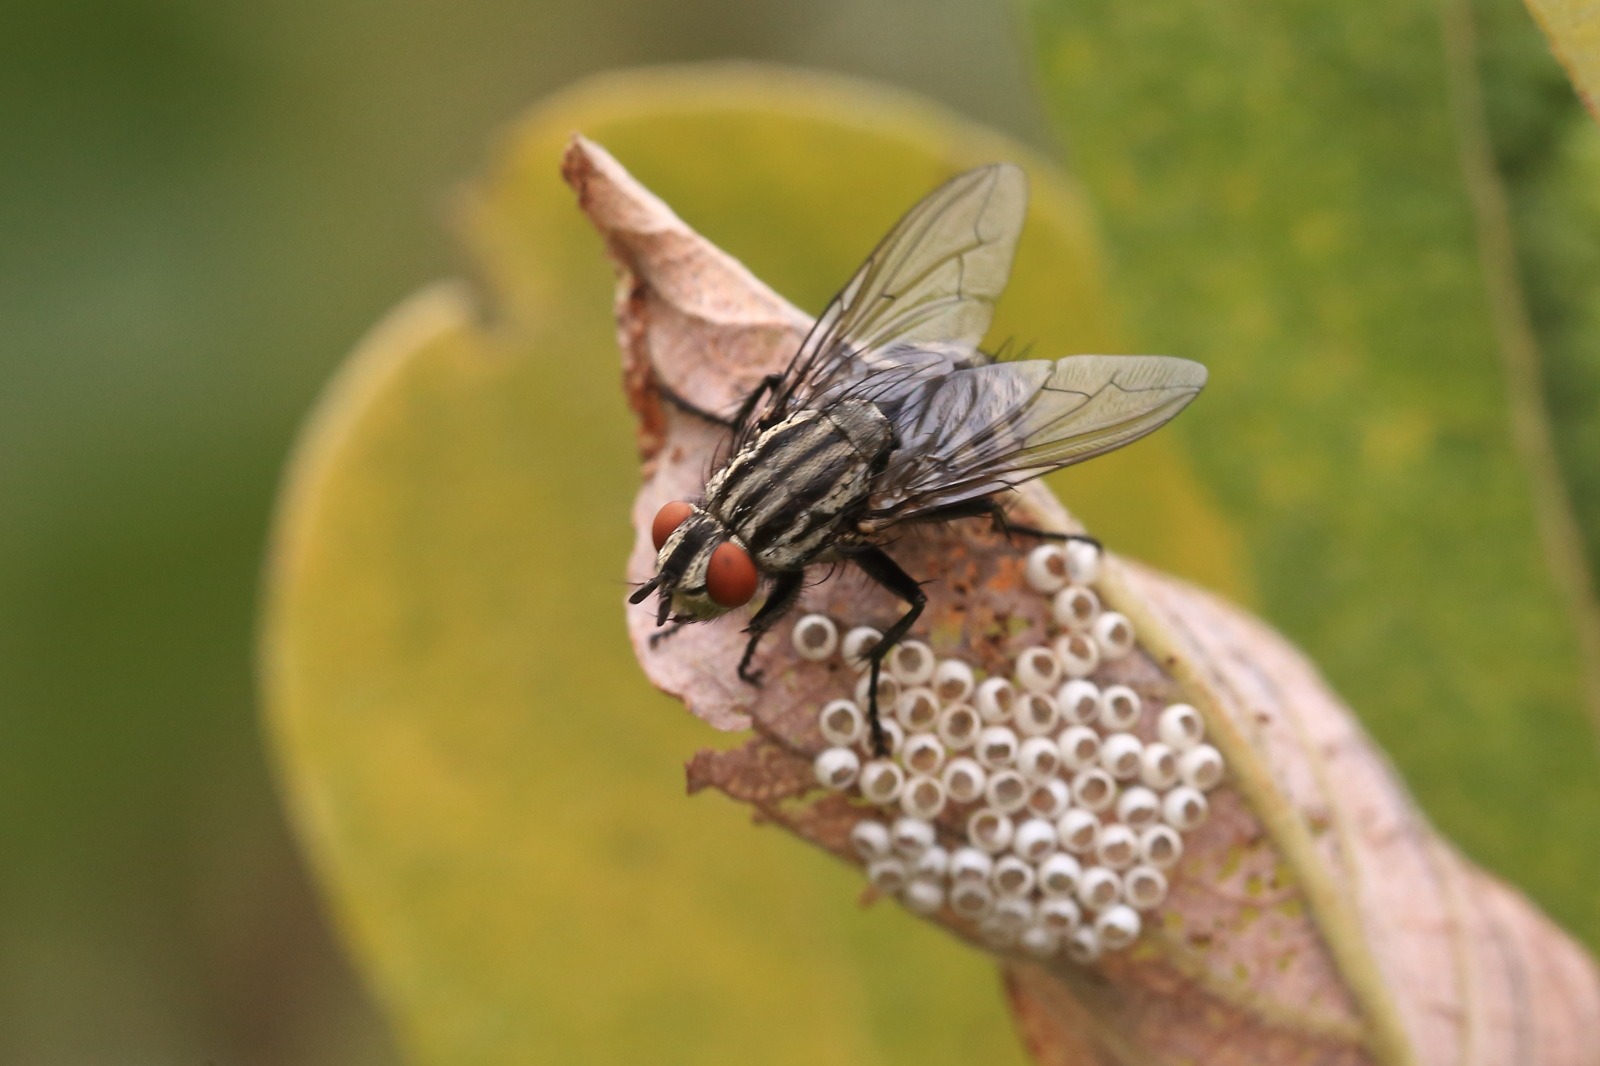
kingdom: Animalia
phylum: Arthropoda
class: Insecta
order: Diptera
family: Sarcophagidae
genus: Sarcophaga
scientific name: Sarcophaga
